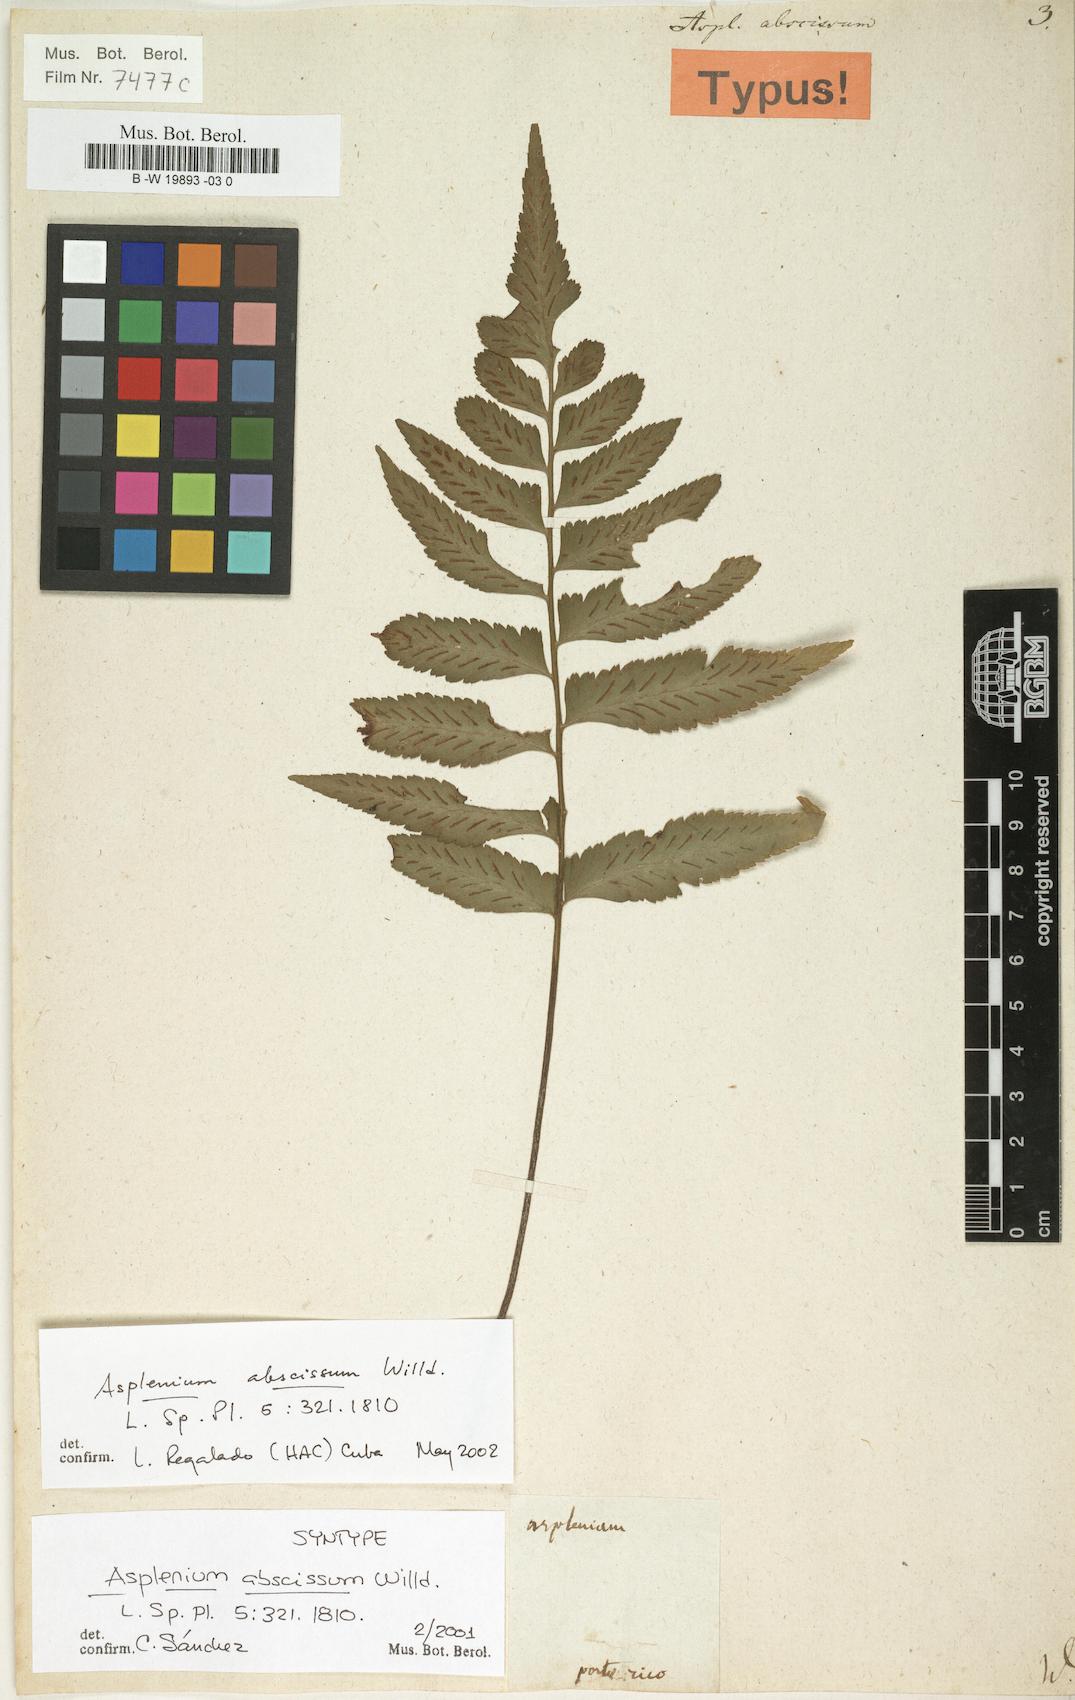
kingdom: Plantae
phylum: Tracheophyta
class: Polypodiopsida
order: Polypodiales
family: Aspleniaceae
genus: Asplenium
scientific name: Asplenium abscissum
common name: Cutleaf spleenwort
